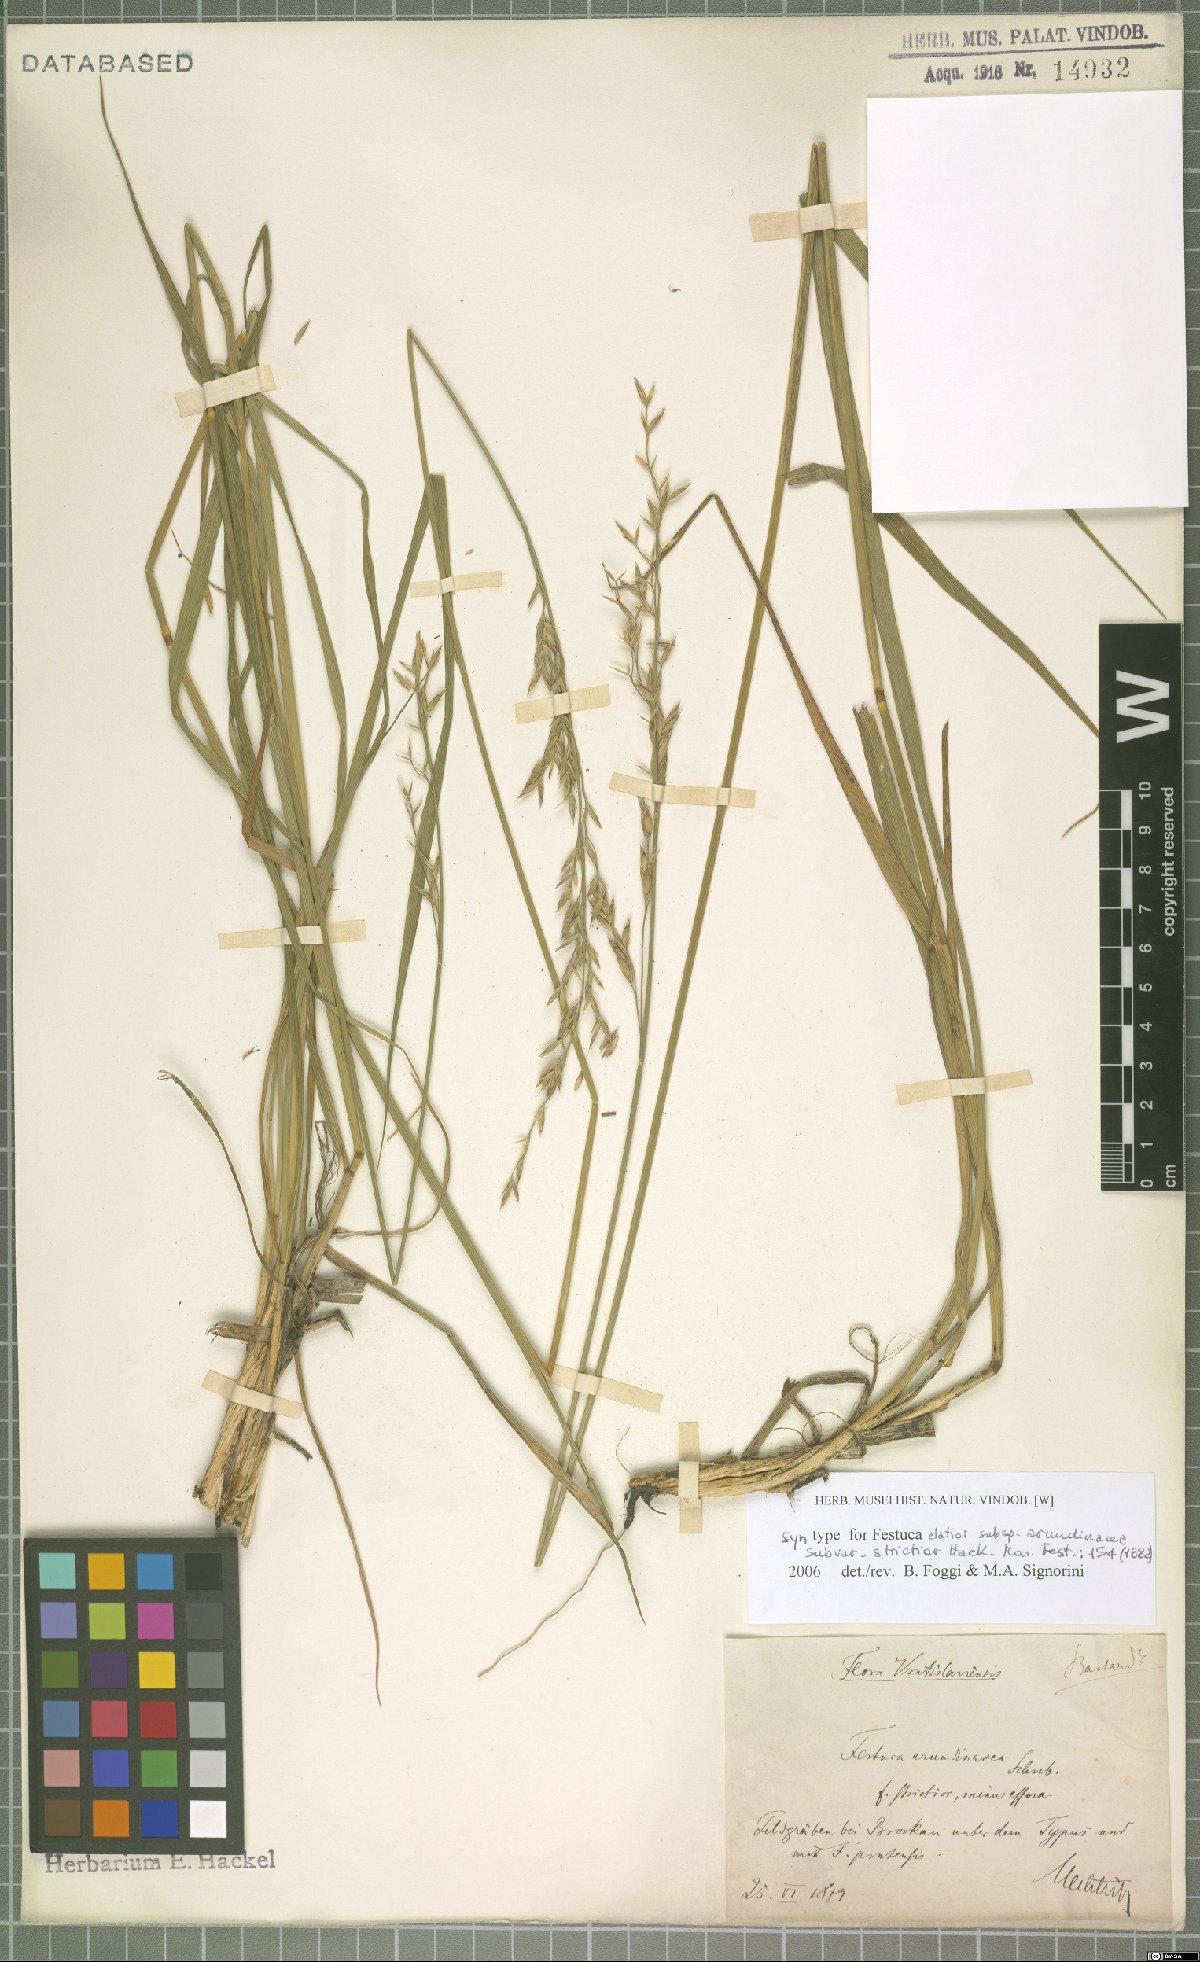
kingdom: Plantae
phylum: Tracheophyta
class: Liliopsida
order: Poales
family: Poaceae
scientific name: Poaceae
